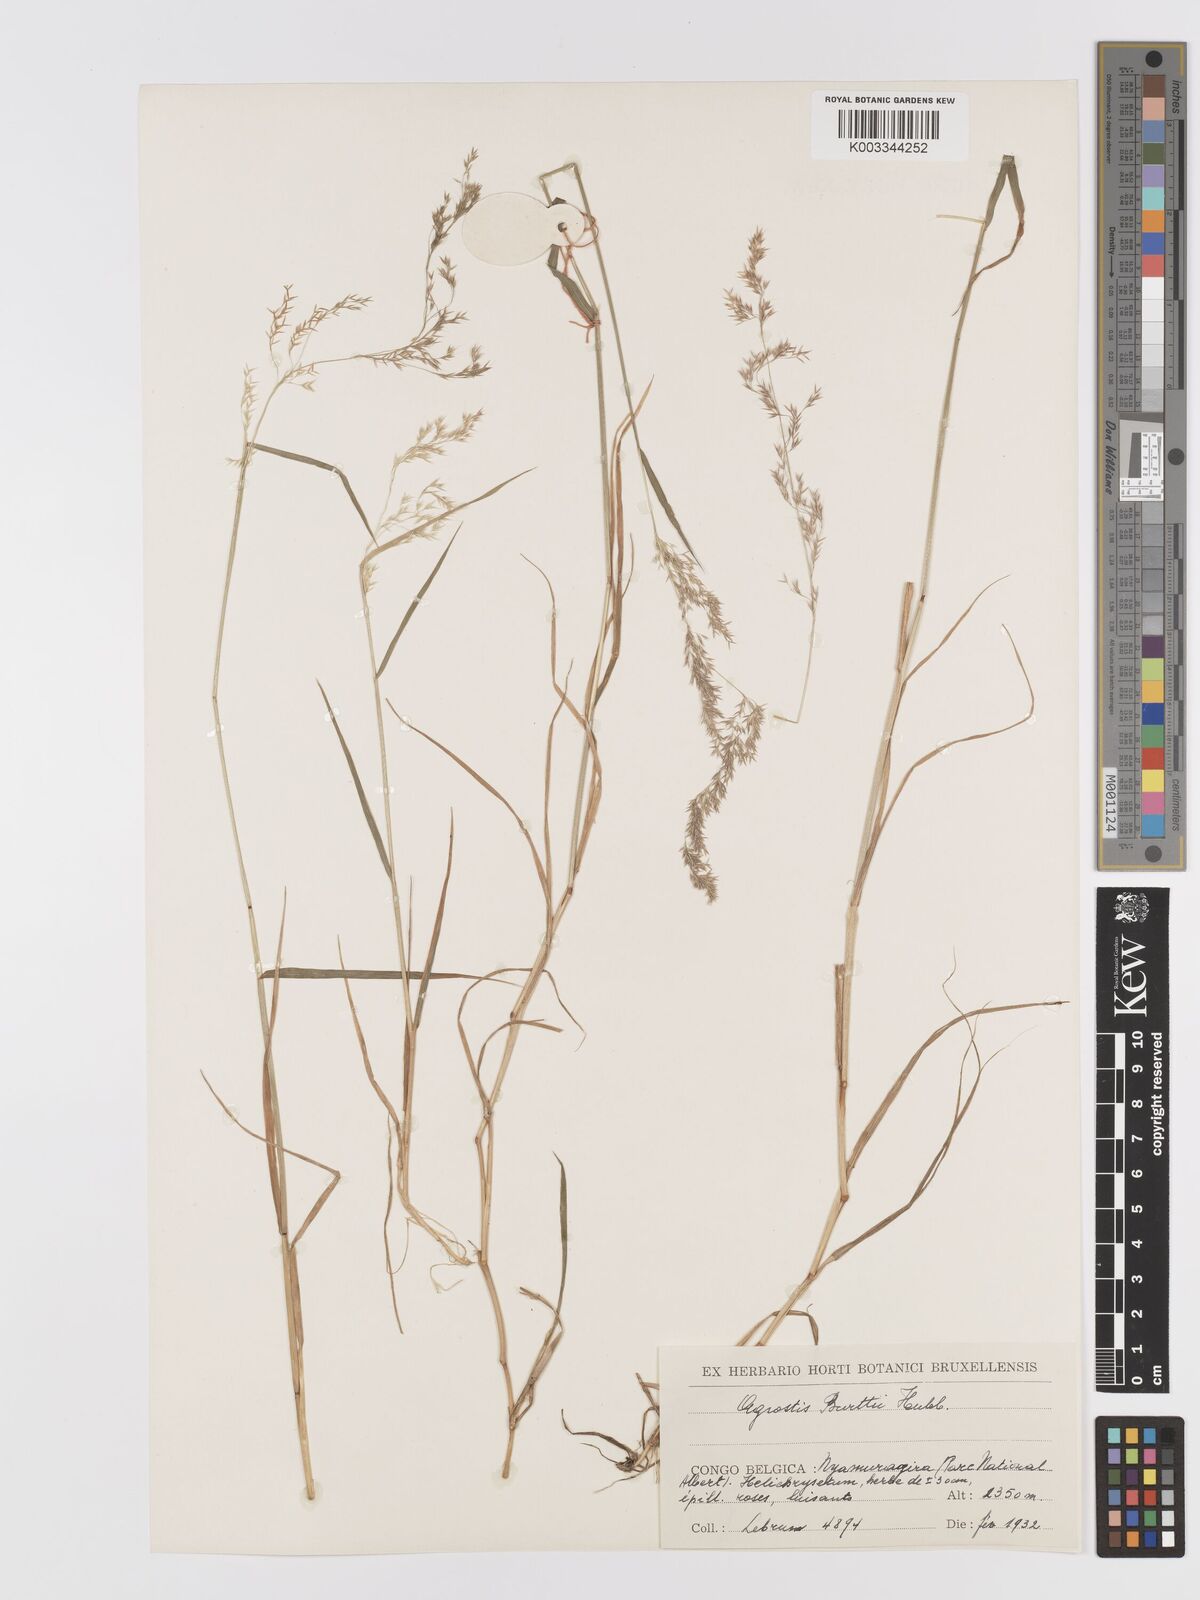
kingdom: Plantae
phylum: Tracheophyta
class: Liliopsida
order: Poales
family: Poaceae
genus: Agrostis
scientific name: Agrostis kilimandscharica
